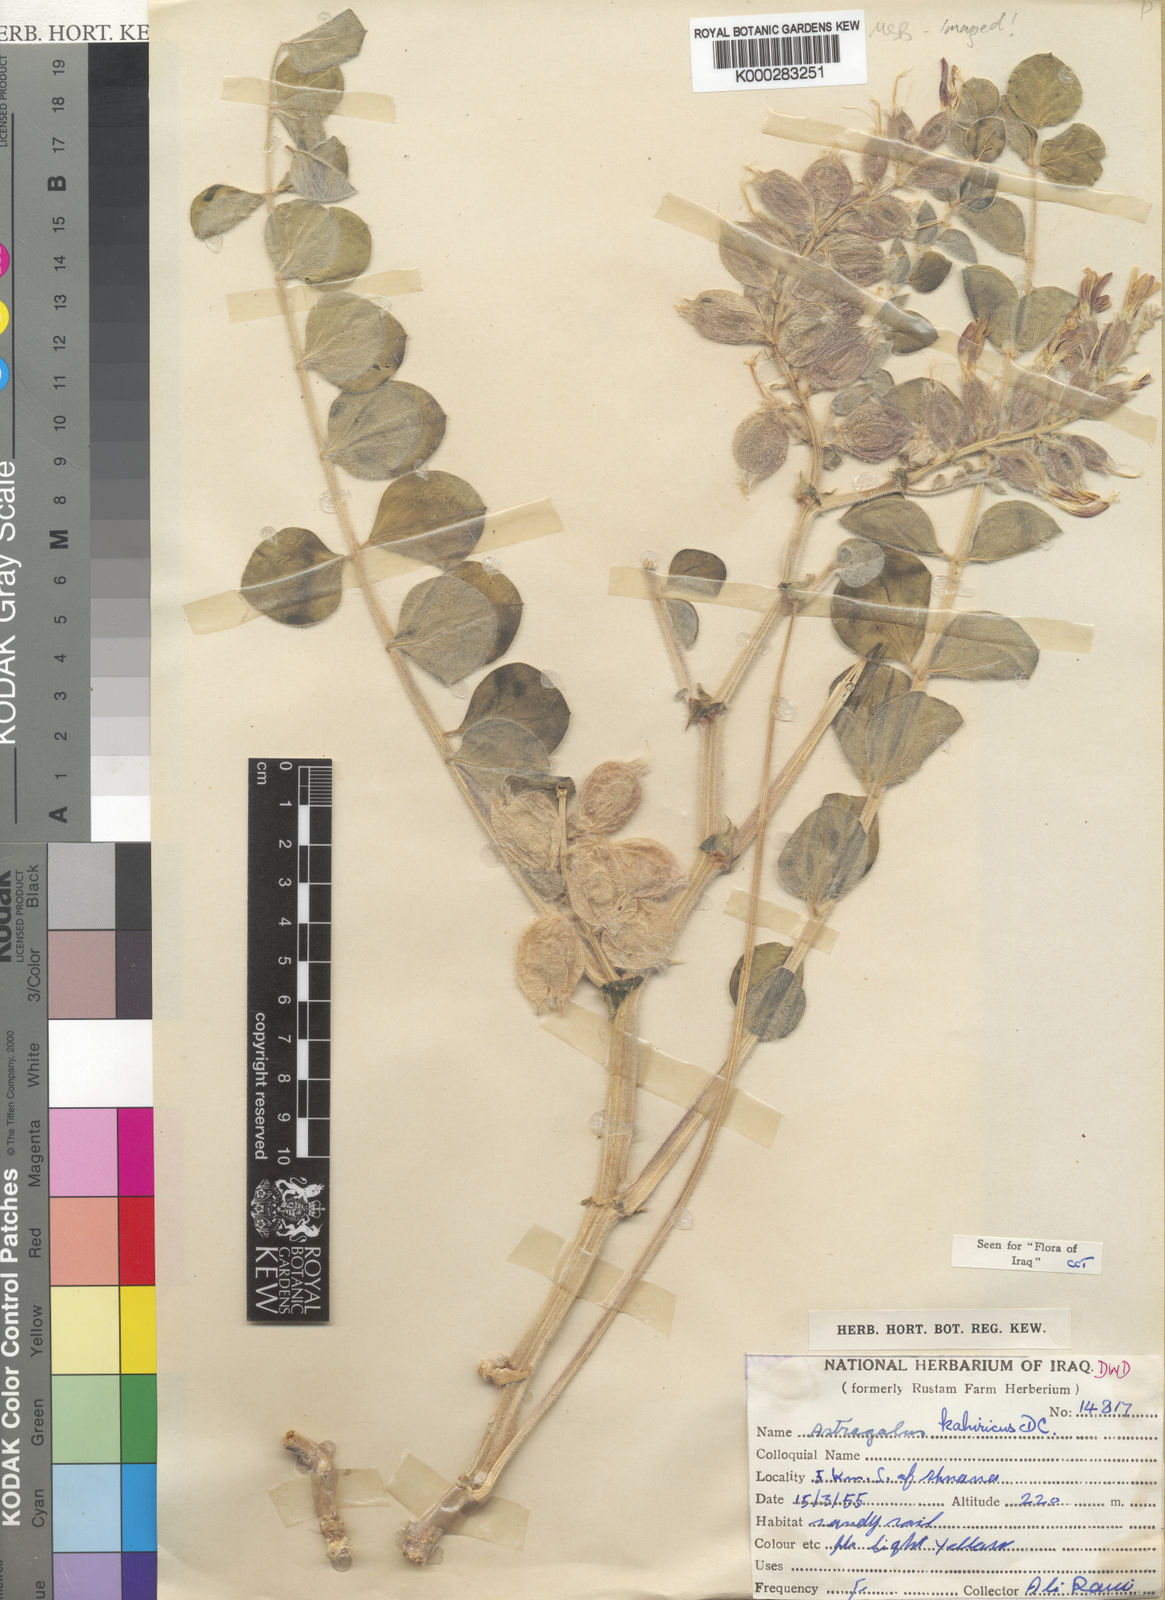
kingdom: Plantae
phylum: Tracheophyta
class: Magnoliopsida
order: Fabales
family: Fabaceae
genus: Astragalus
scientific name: Astragalus kahiricus
